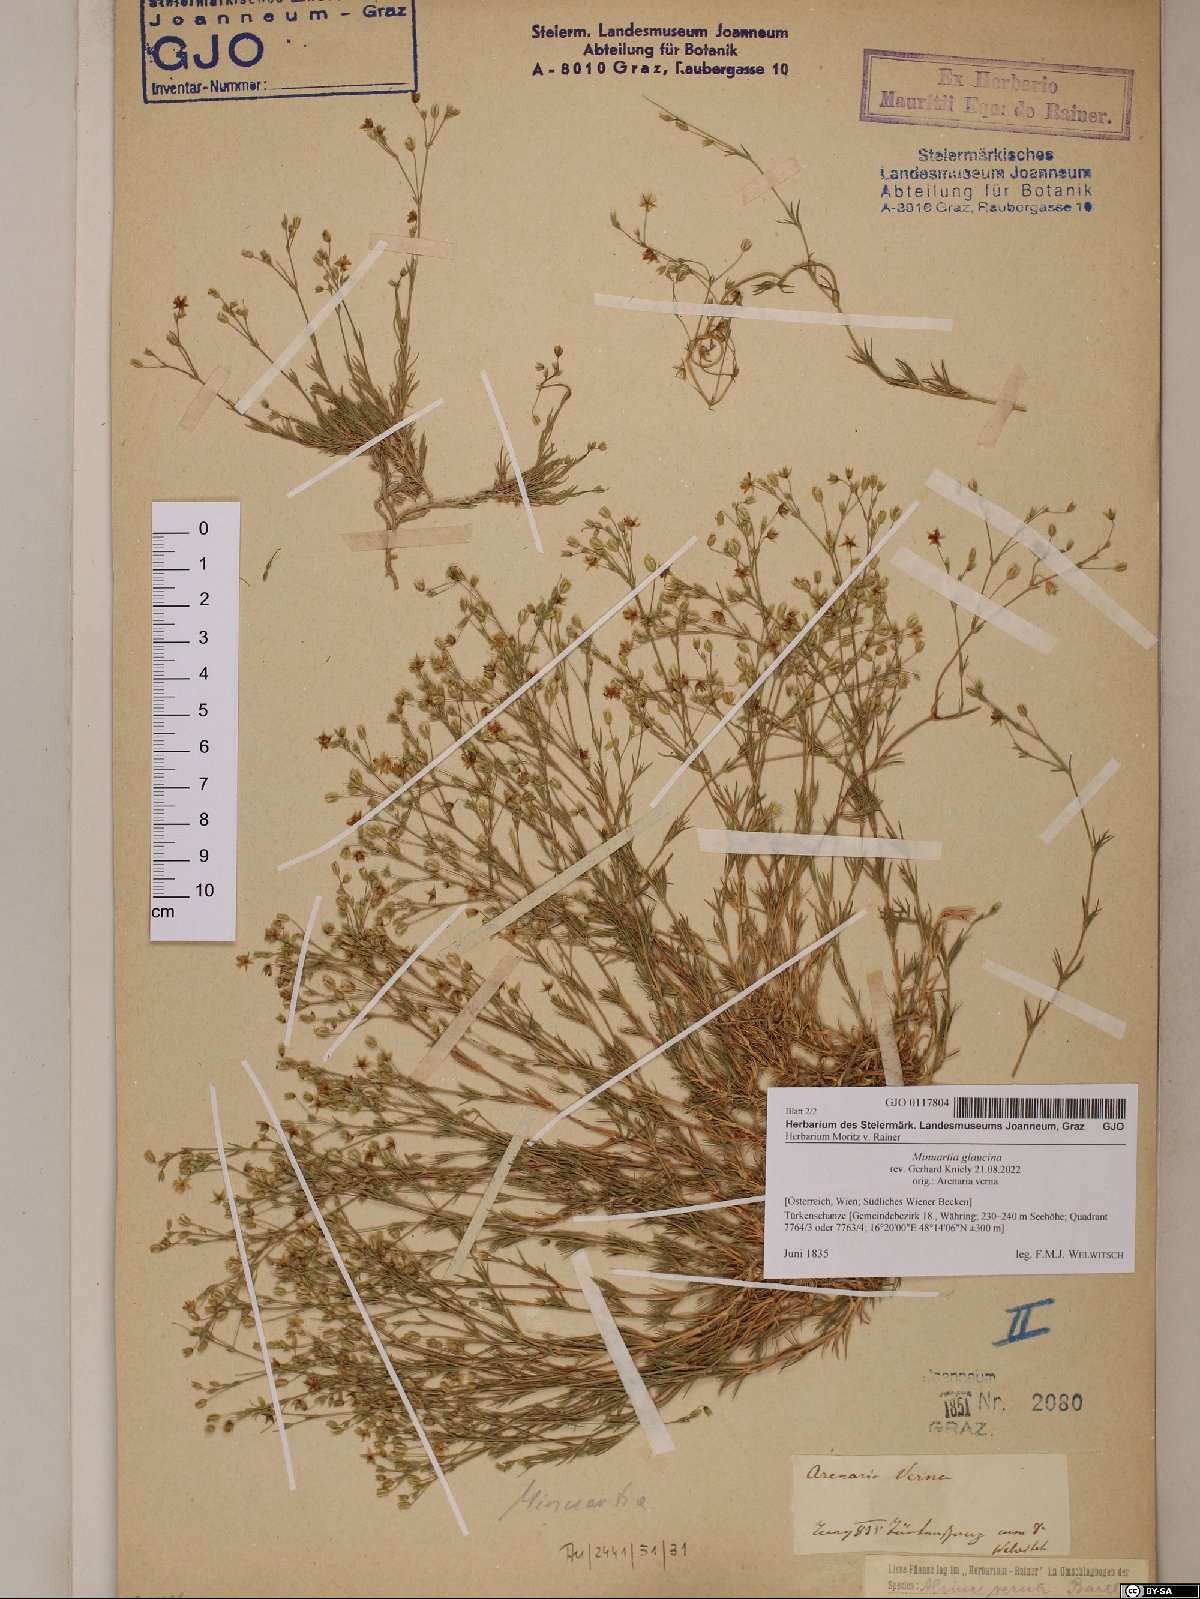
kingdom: Plantae
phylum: Tracheophyta
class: Magnoliopsida
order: Caryophyllales
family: Caryophyllaceae
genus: Sabulina
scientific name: Sabulina glaucina
